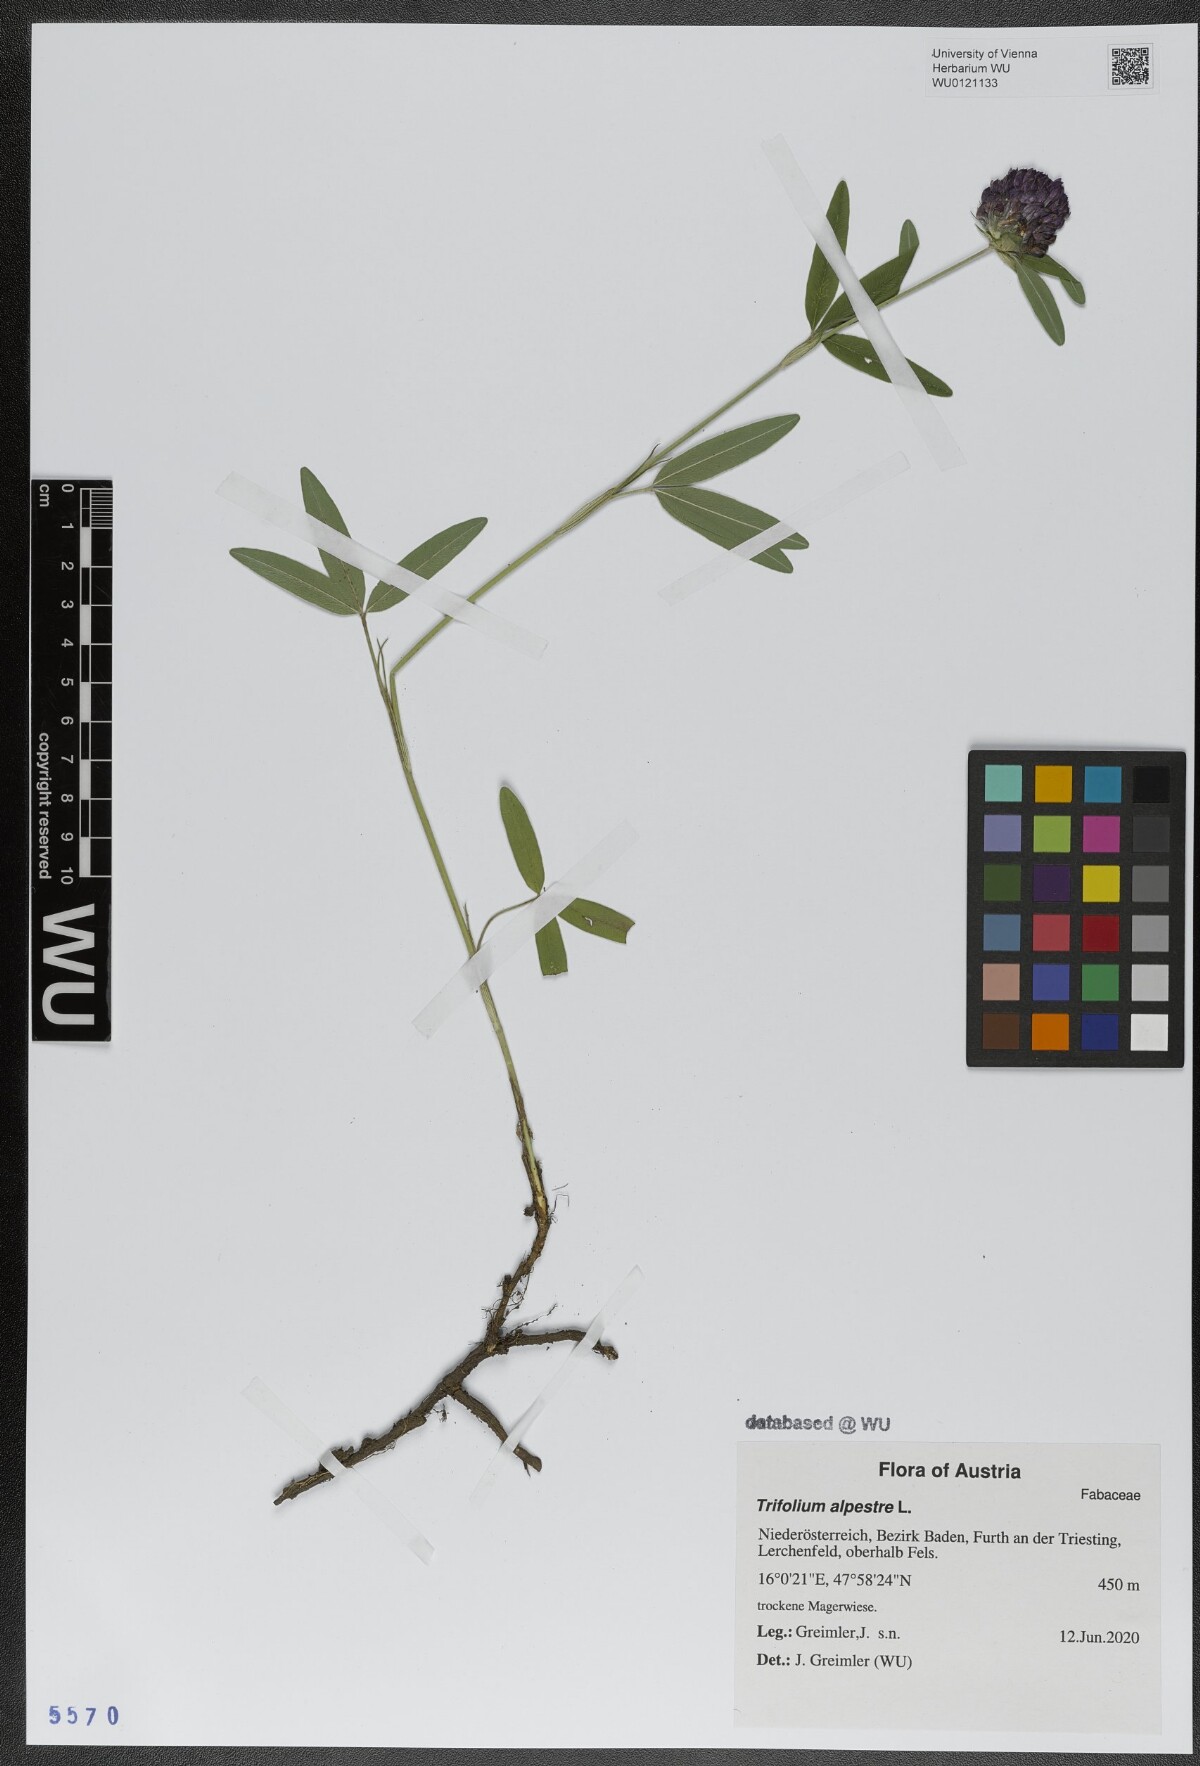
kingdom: Plantae
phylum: Tracheophyta
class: Magnoliopsida
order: Fabales
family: Fabaceae
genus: Trifolium
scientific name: Trifolium alpestre
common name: Owl-head clover
